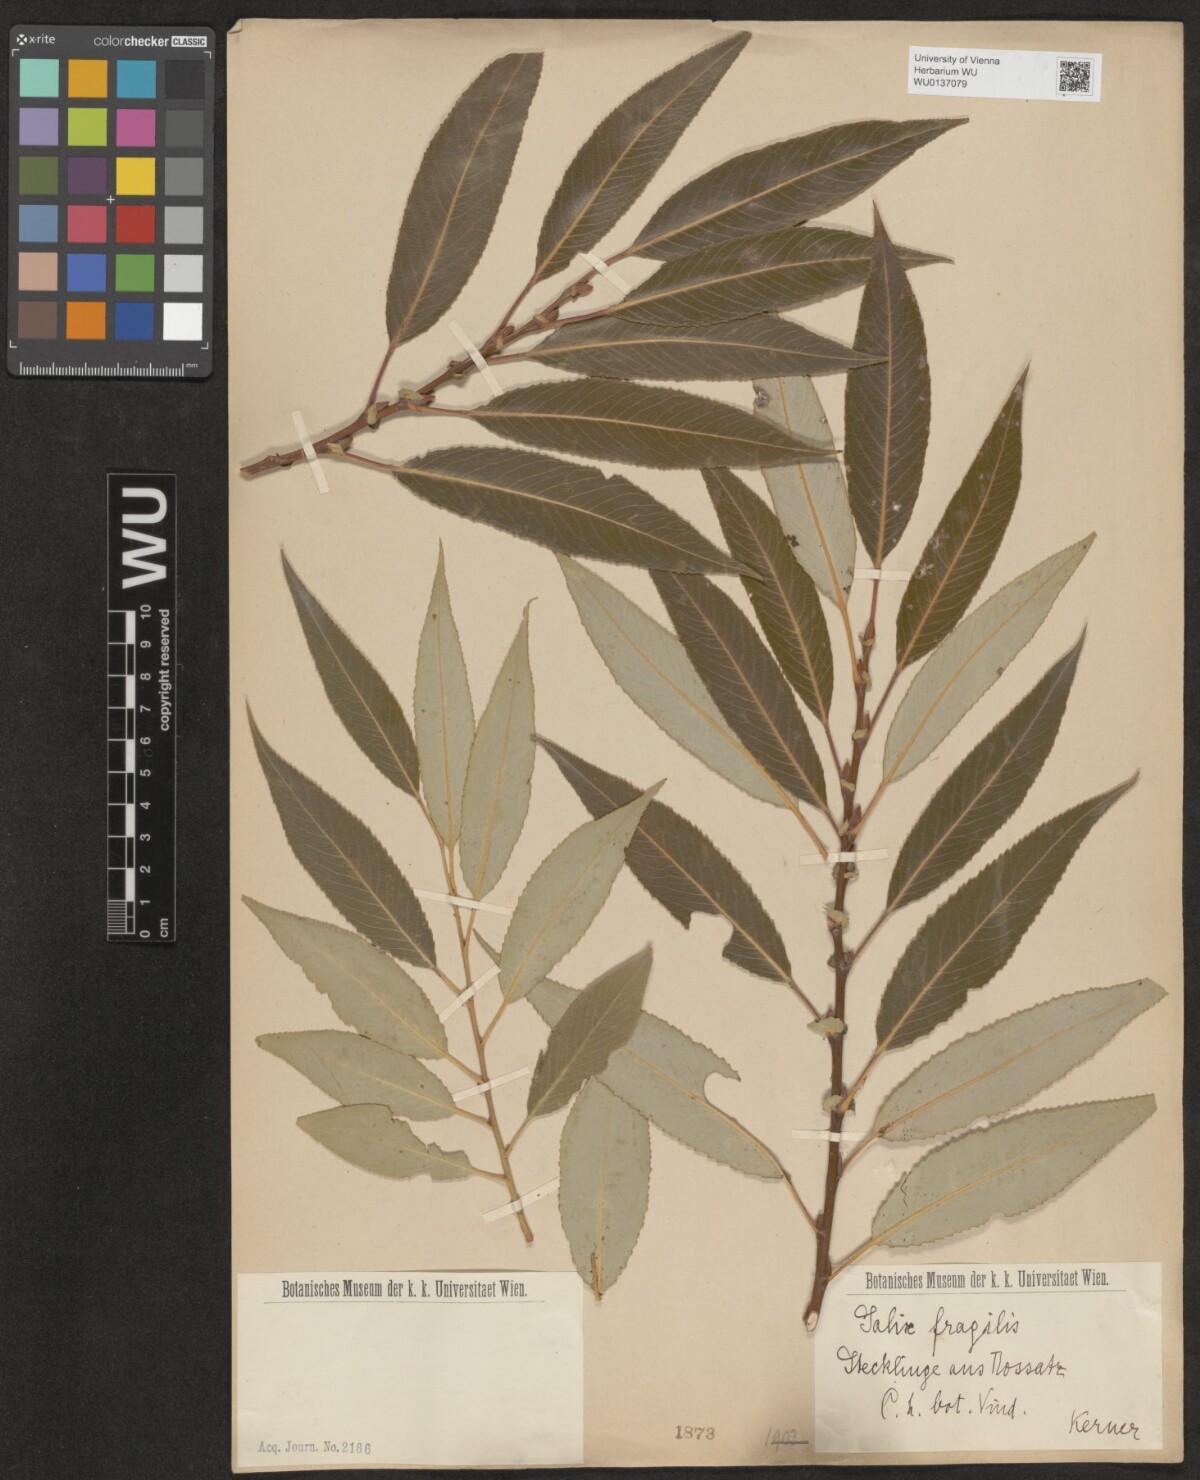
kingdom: Plantae
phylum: Tracheophyta
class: Magnoliopsida
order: Malpighiales
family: Salicaceae
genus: Salix
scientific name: Salix fragilis
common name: Crack willow
